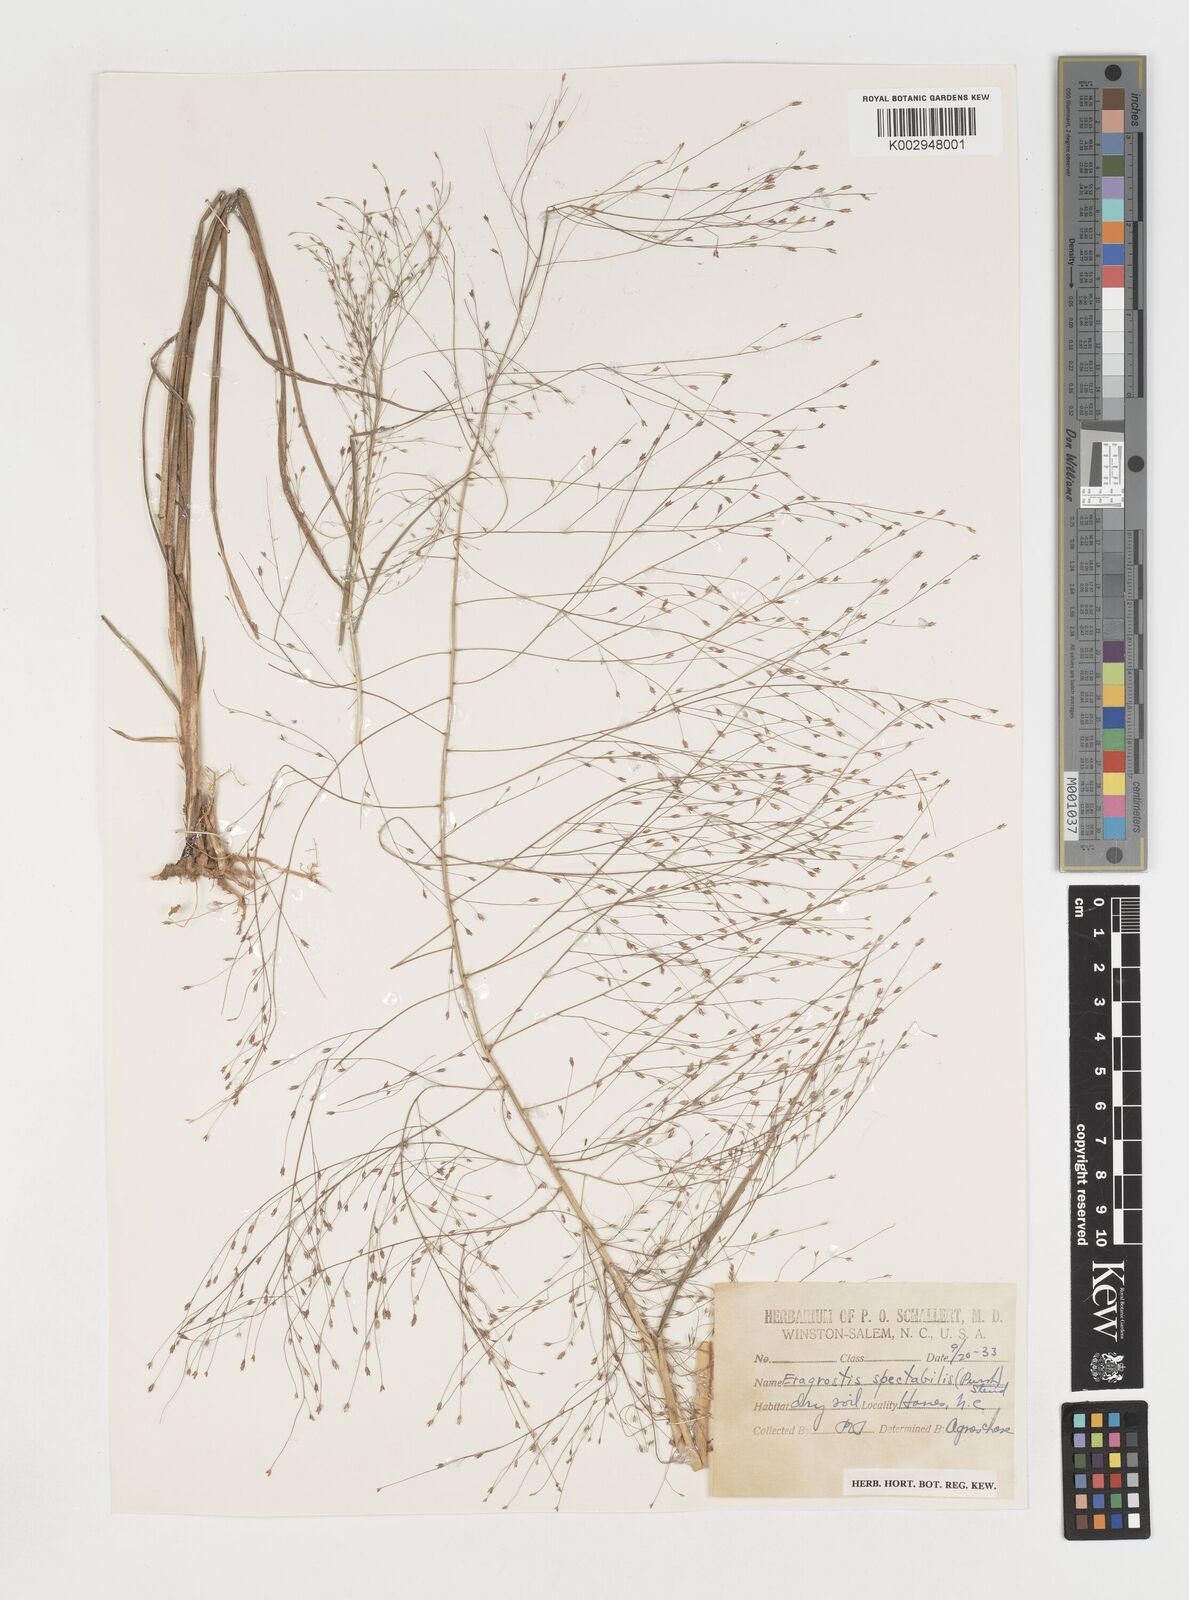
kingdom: Plantae
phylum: Tracheophyta
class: Liliopsida
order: Poales
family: Poaceae
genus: Eragrostis
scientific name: Eragrostis spectabilis
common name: Petticoat-climber
